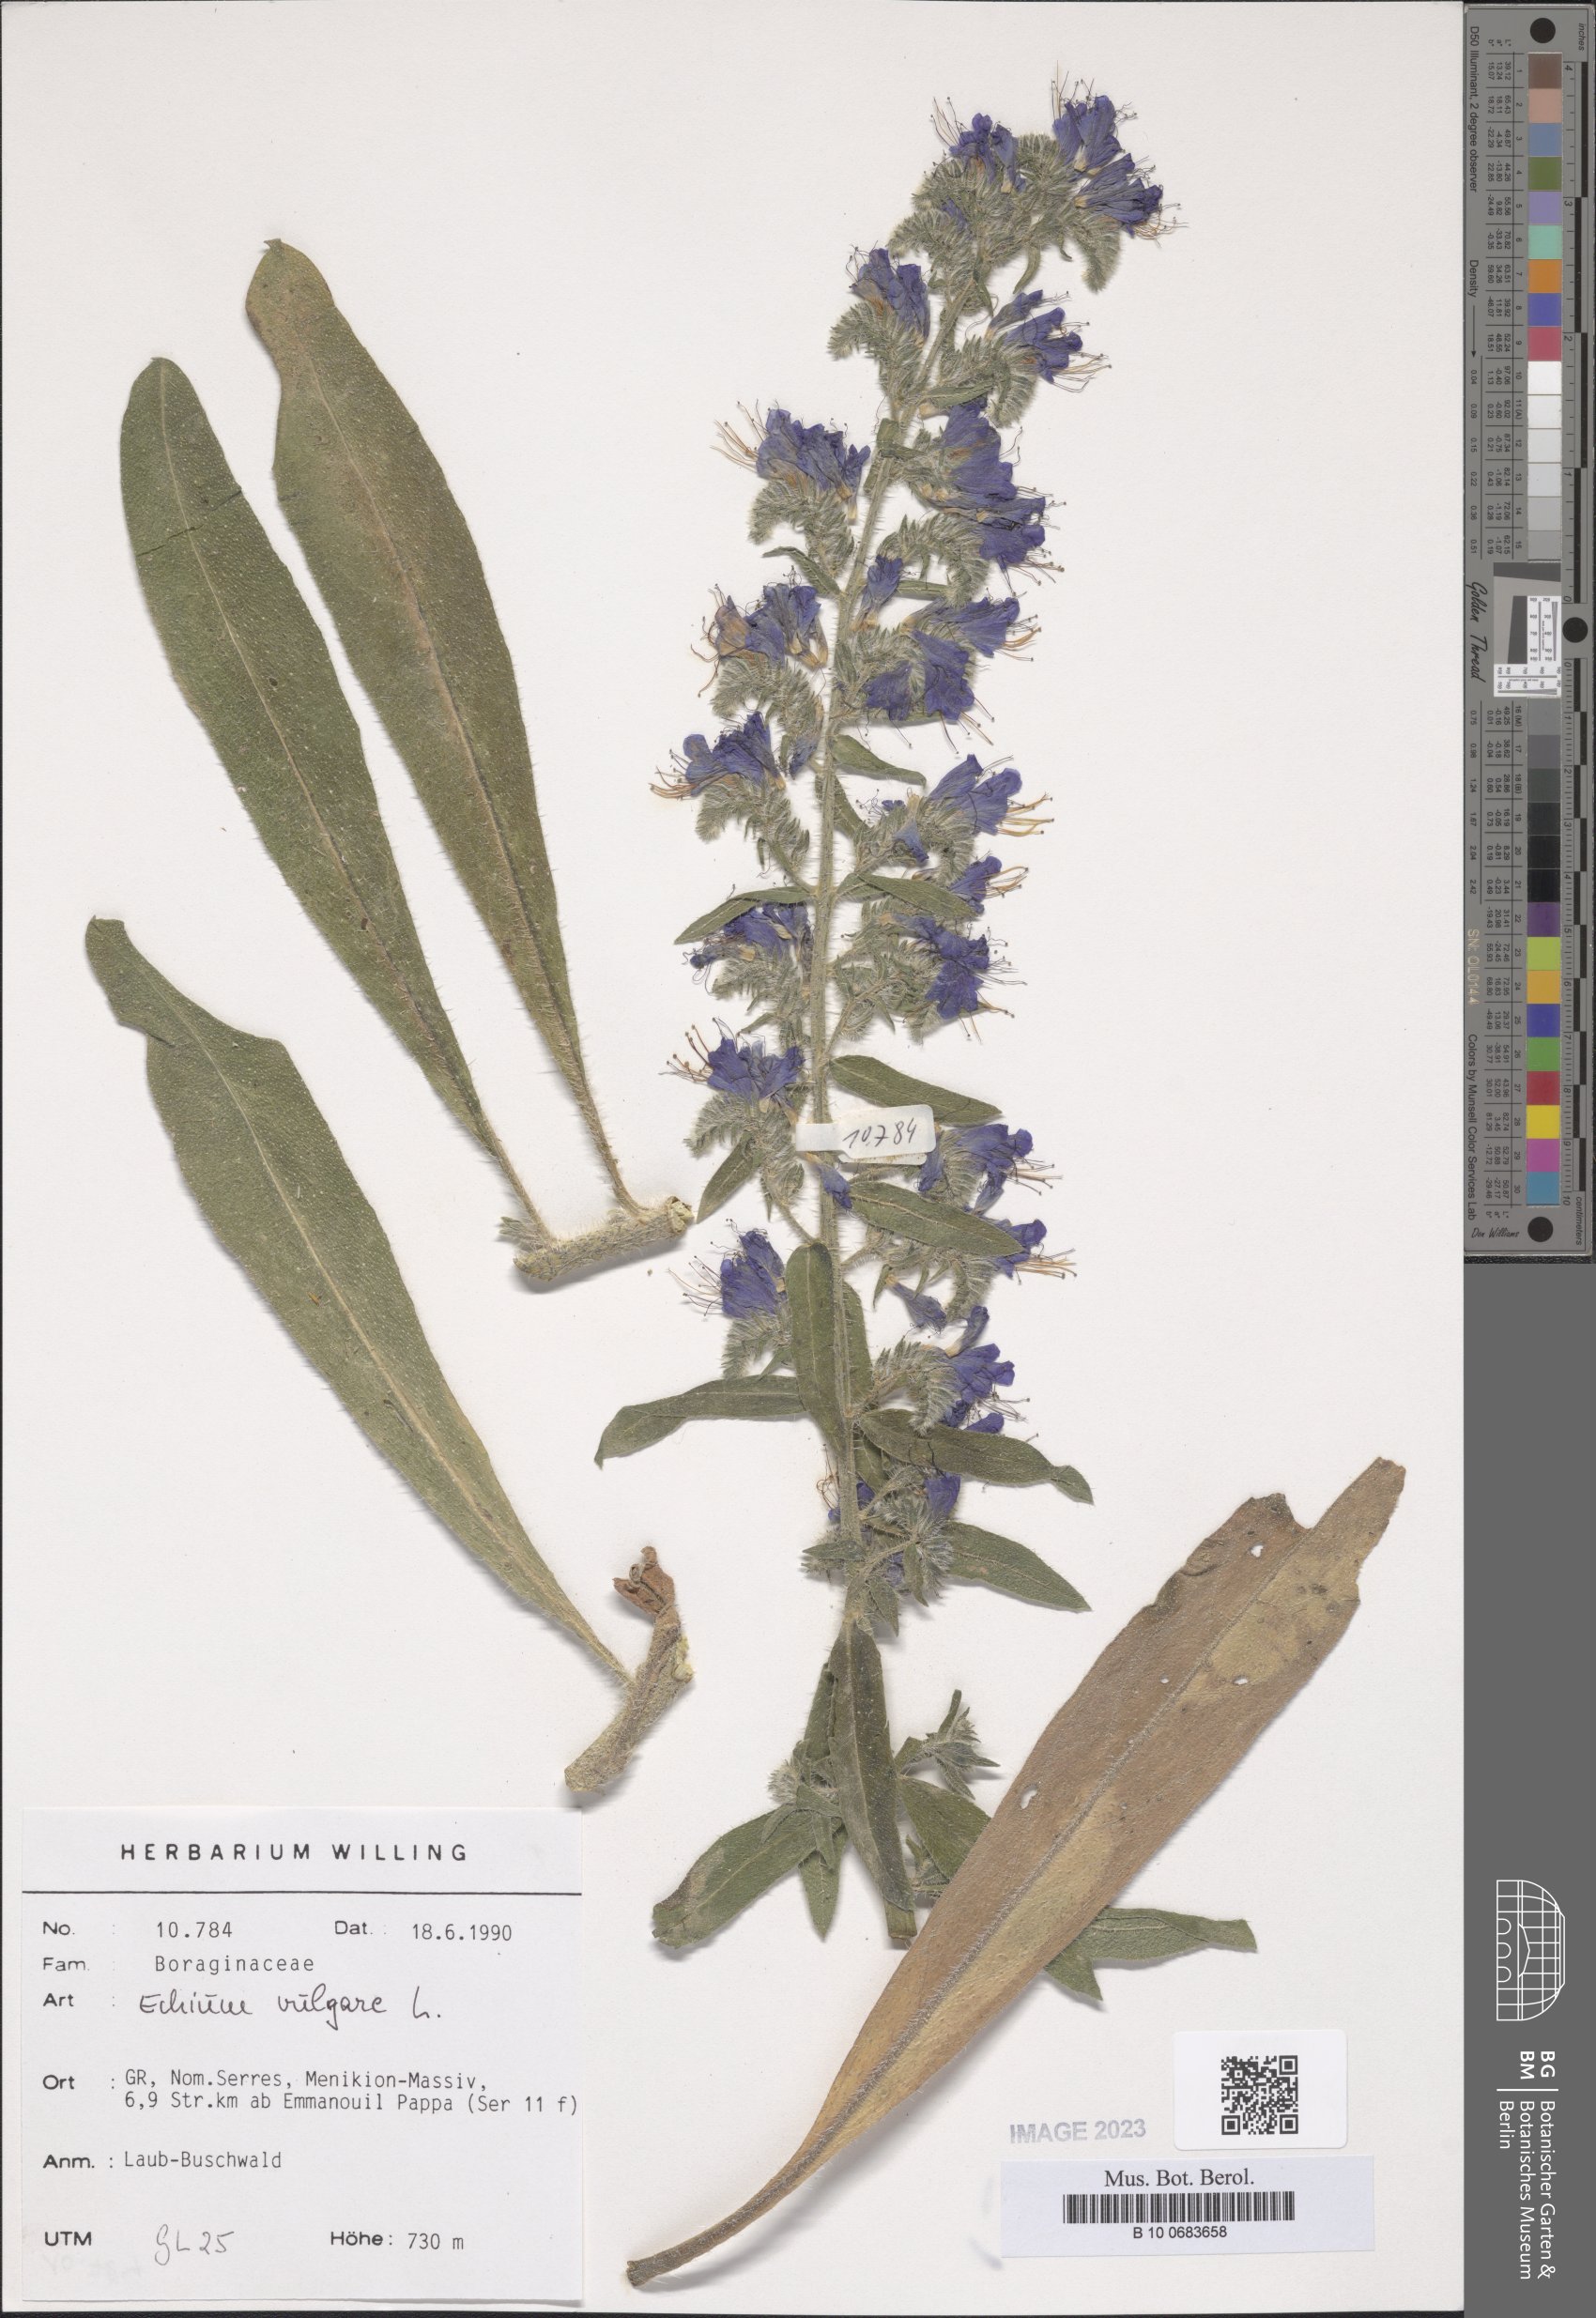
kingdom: Plantae
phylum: Tracheophyta
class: Magnoliopsida
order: Boraginales
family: Boraginaceae
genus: Echium
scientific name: Echium vulgare
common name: Common viper's bugloss
